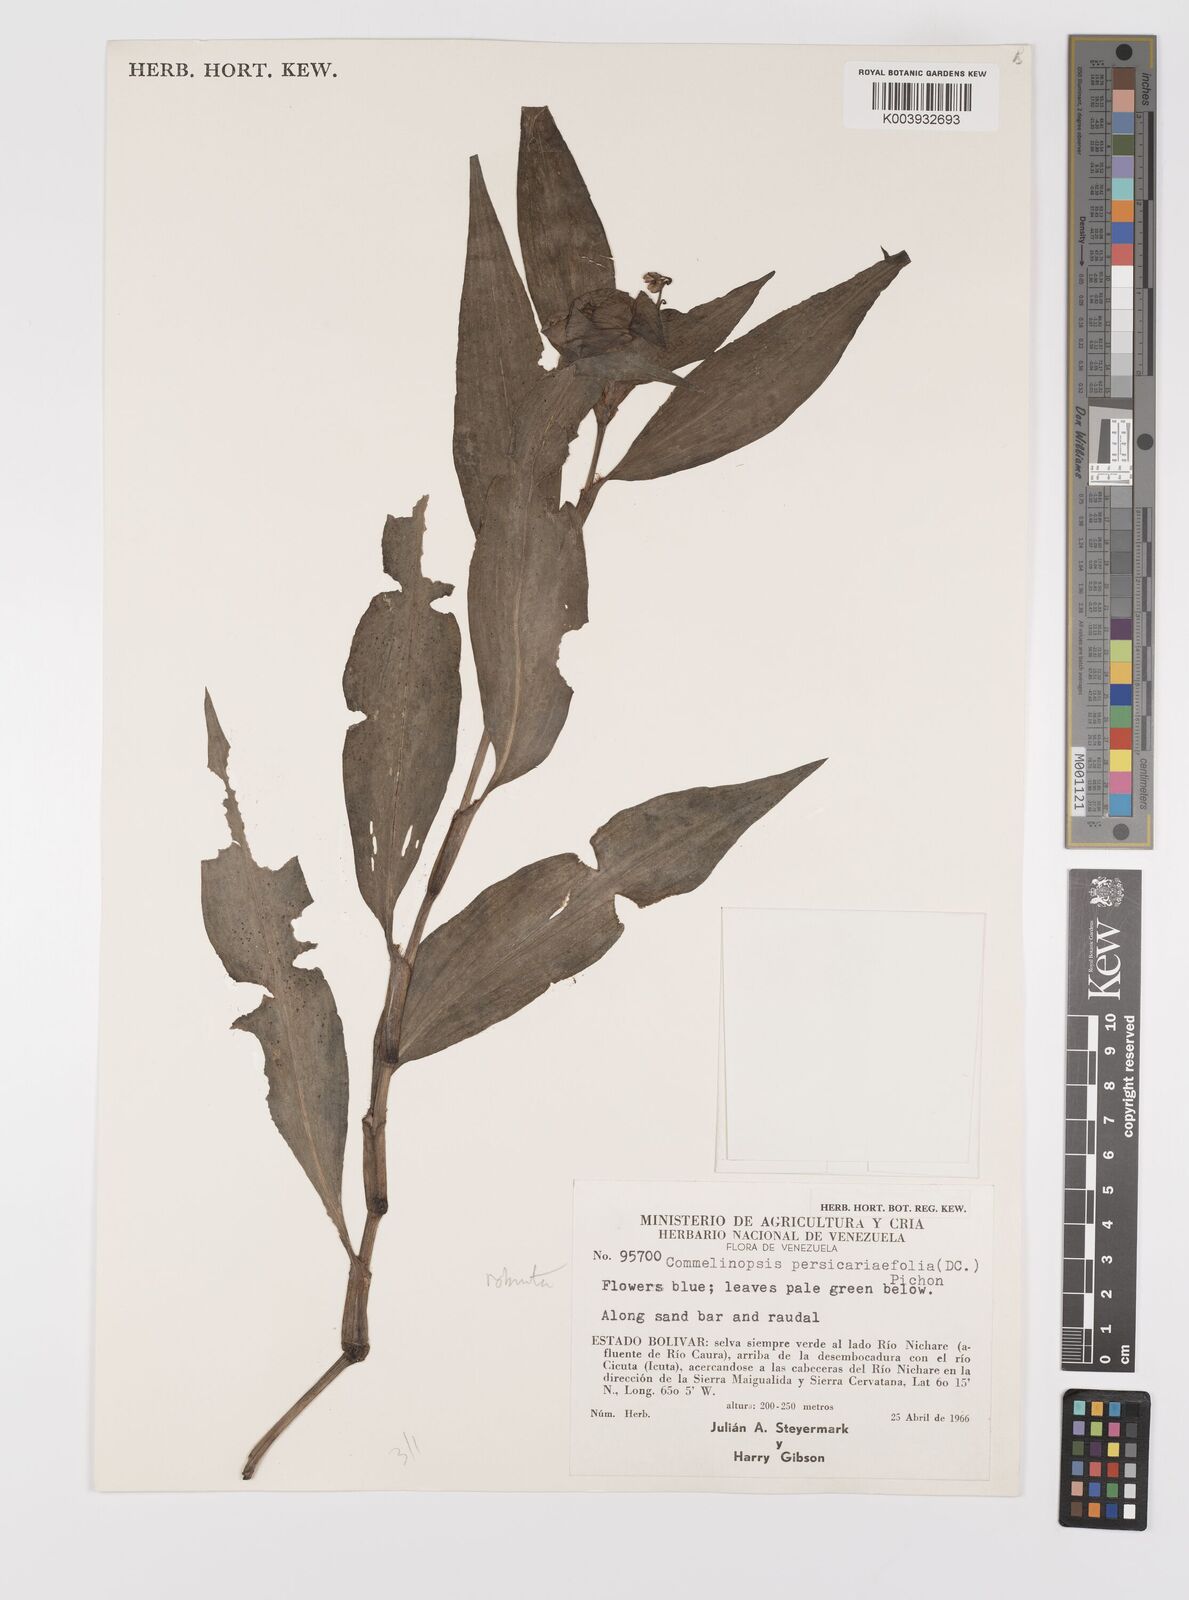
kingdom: Plantae
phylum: Tracheophyta
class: Liliopsida
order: Commelinales
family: Commelinaceae
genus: Commelina
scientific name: Commelina obliqua
